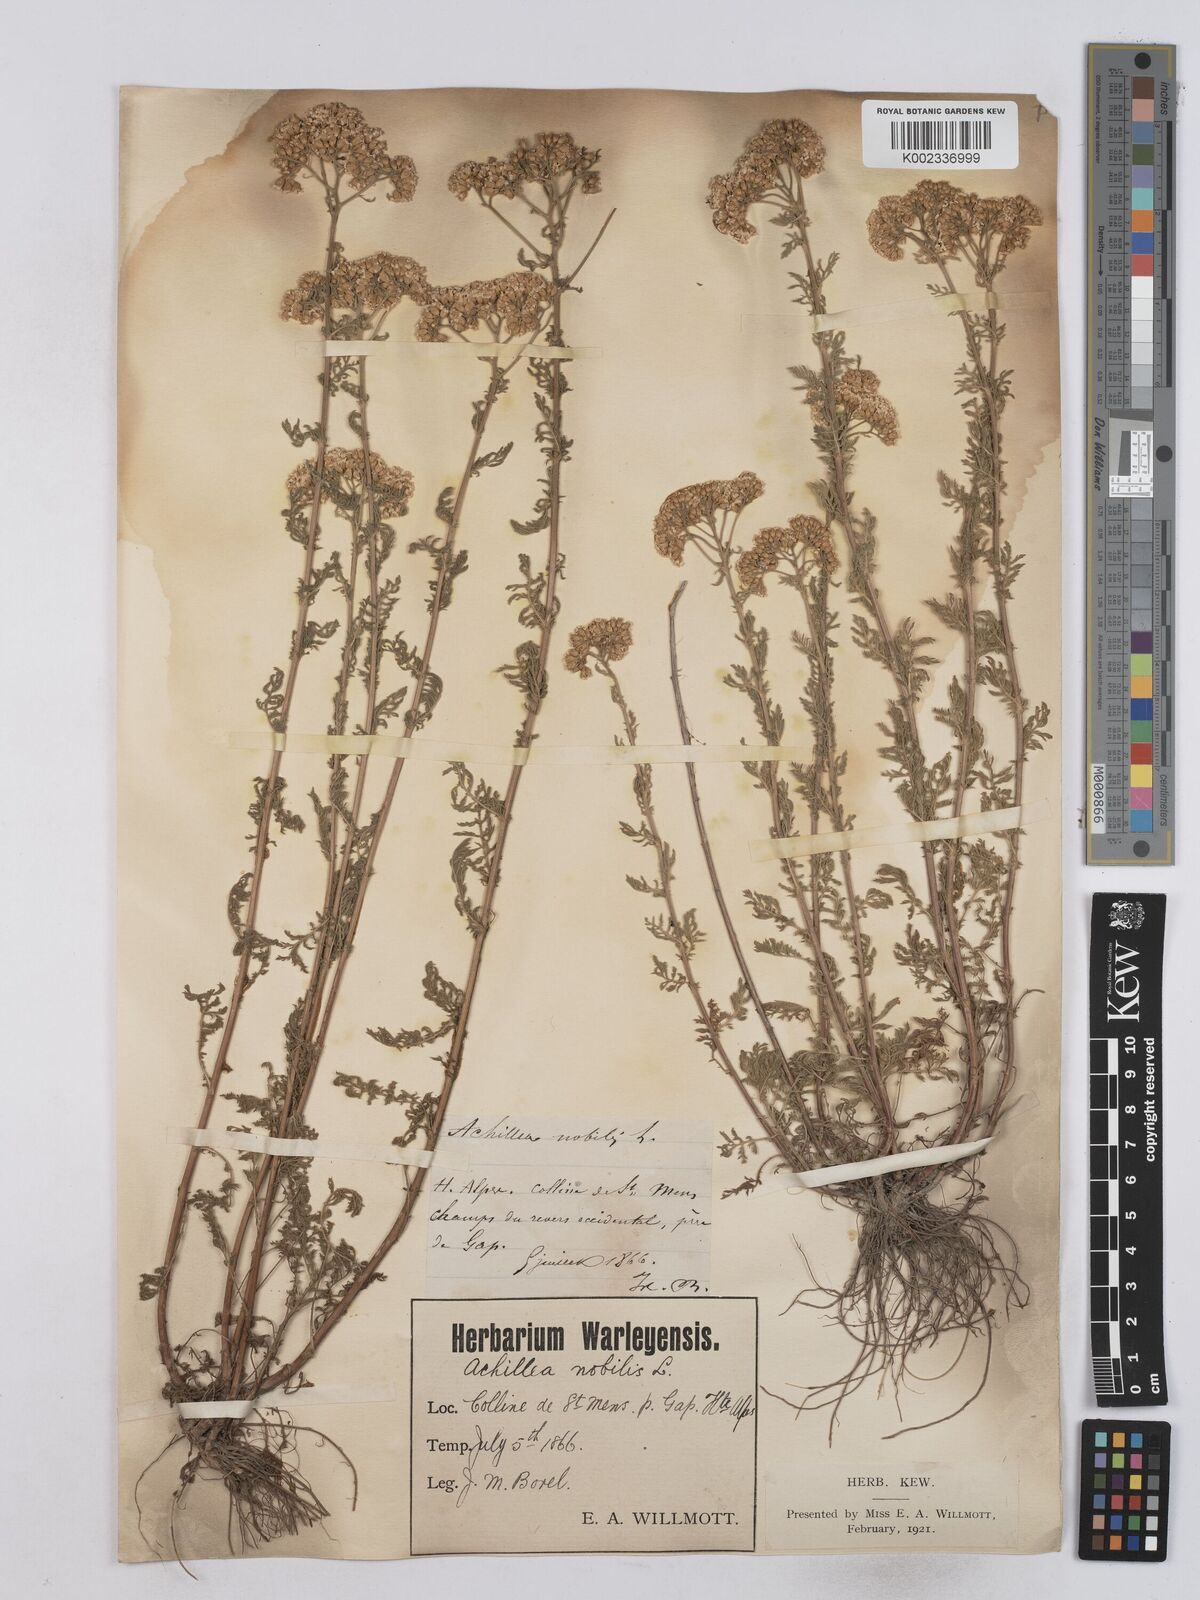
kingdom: Plantae
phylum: Tracheophyta
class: Magnoliopsida
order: Asterales
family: Asteraceae
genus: Achillea
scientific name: Achillea nobilis
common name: Noble yarrow
